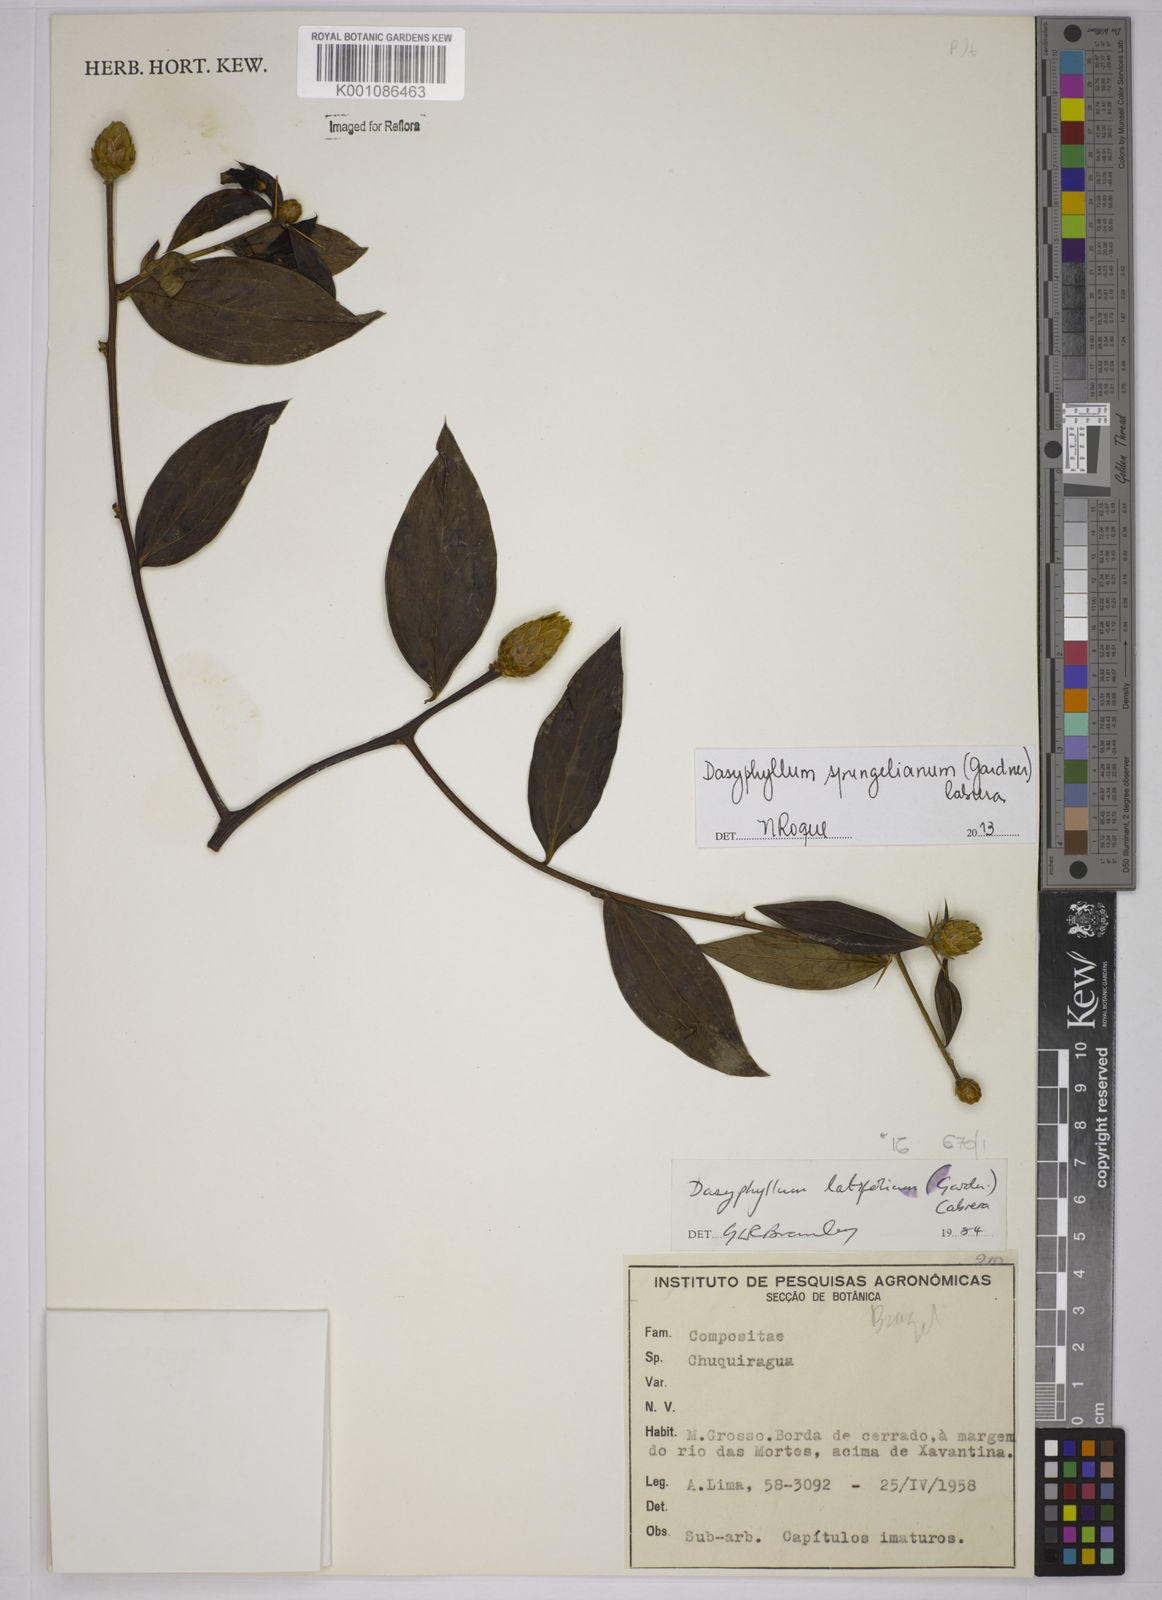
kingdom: Plantae
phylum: Tracheophyta
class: Magnoliopsida
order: Asterales
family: Asteraceae
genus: Dasyphyllum
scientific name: Dasyphyllum sprengelianum
